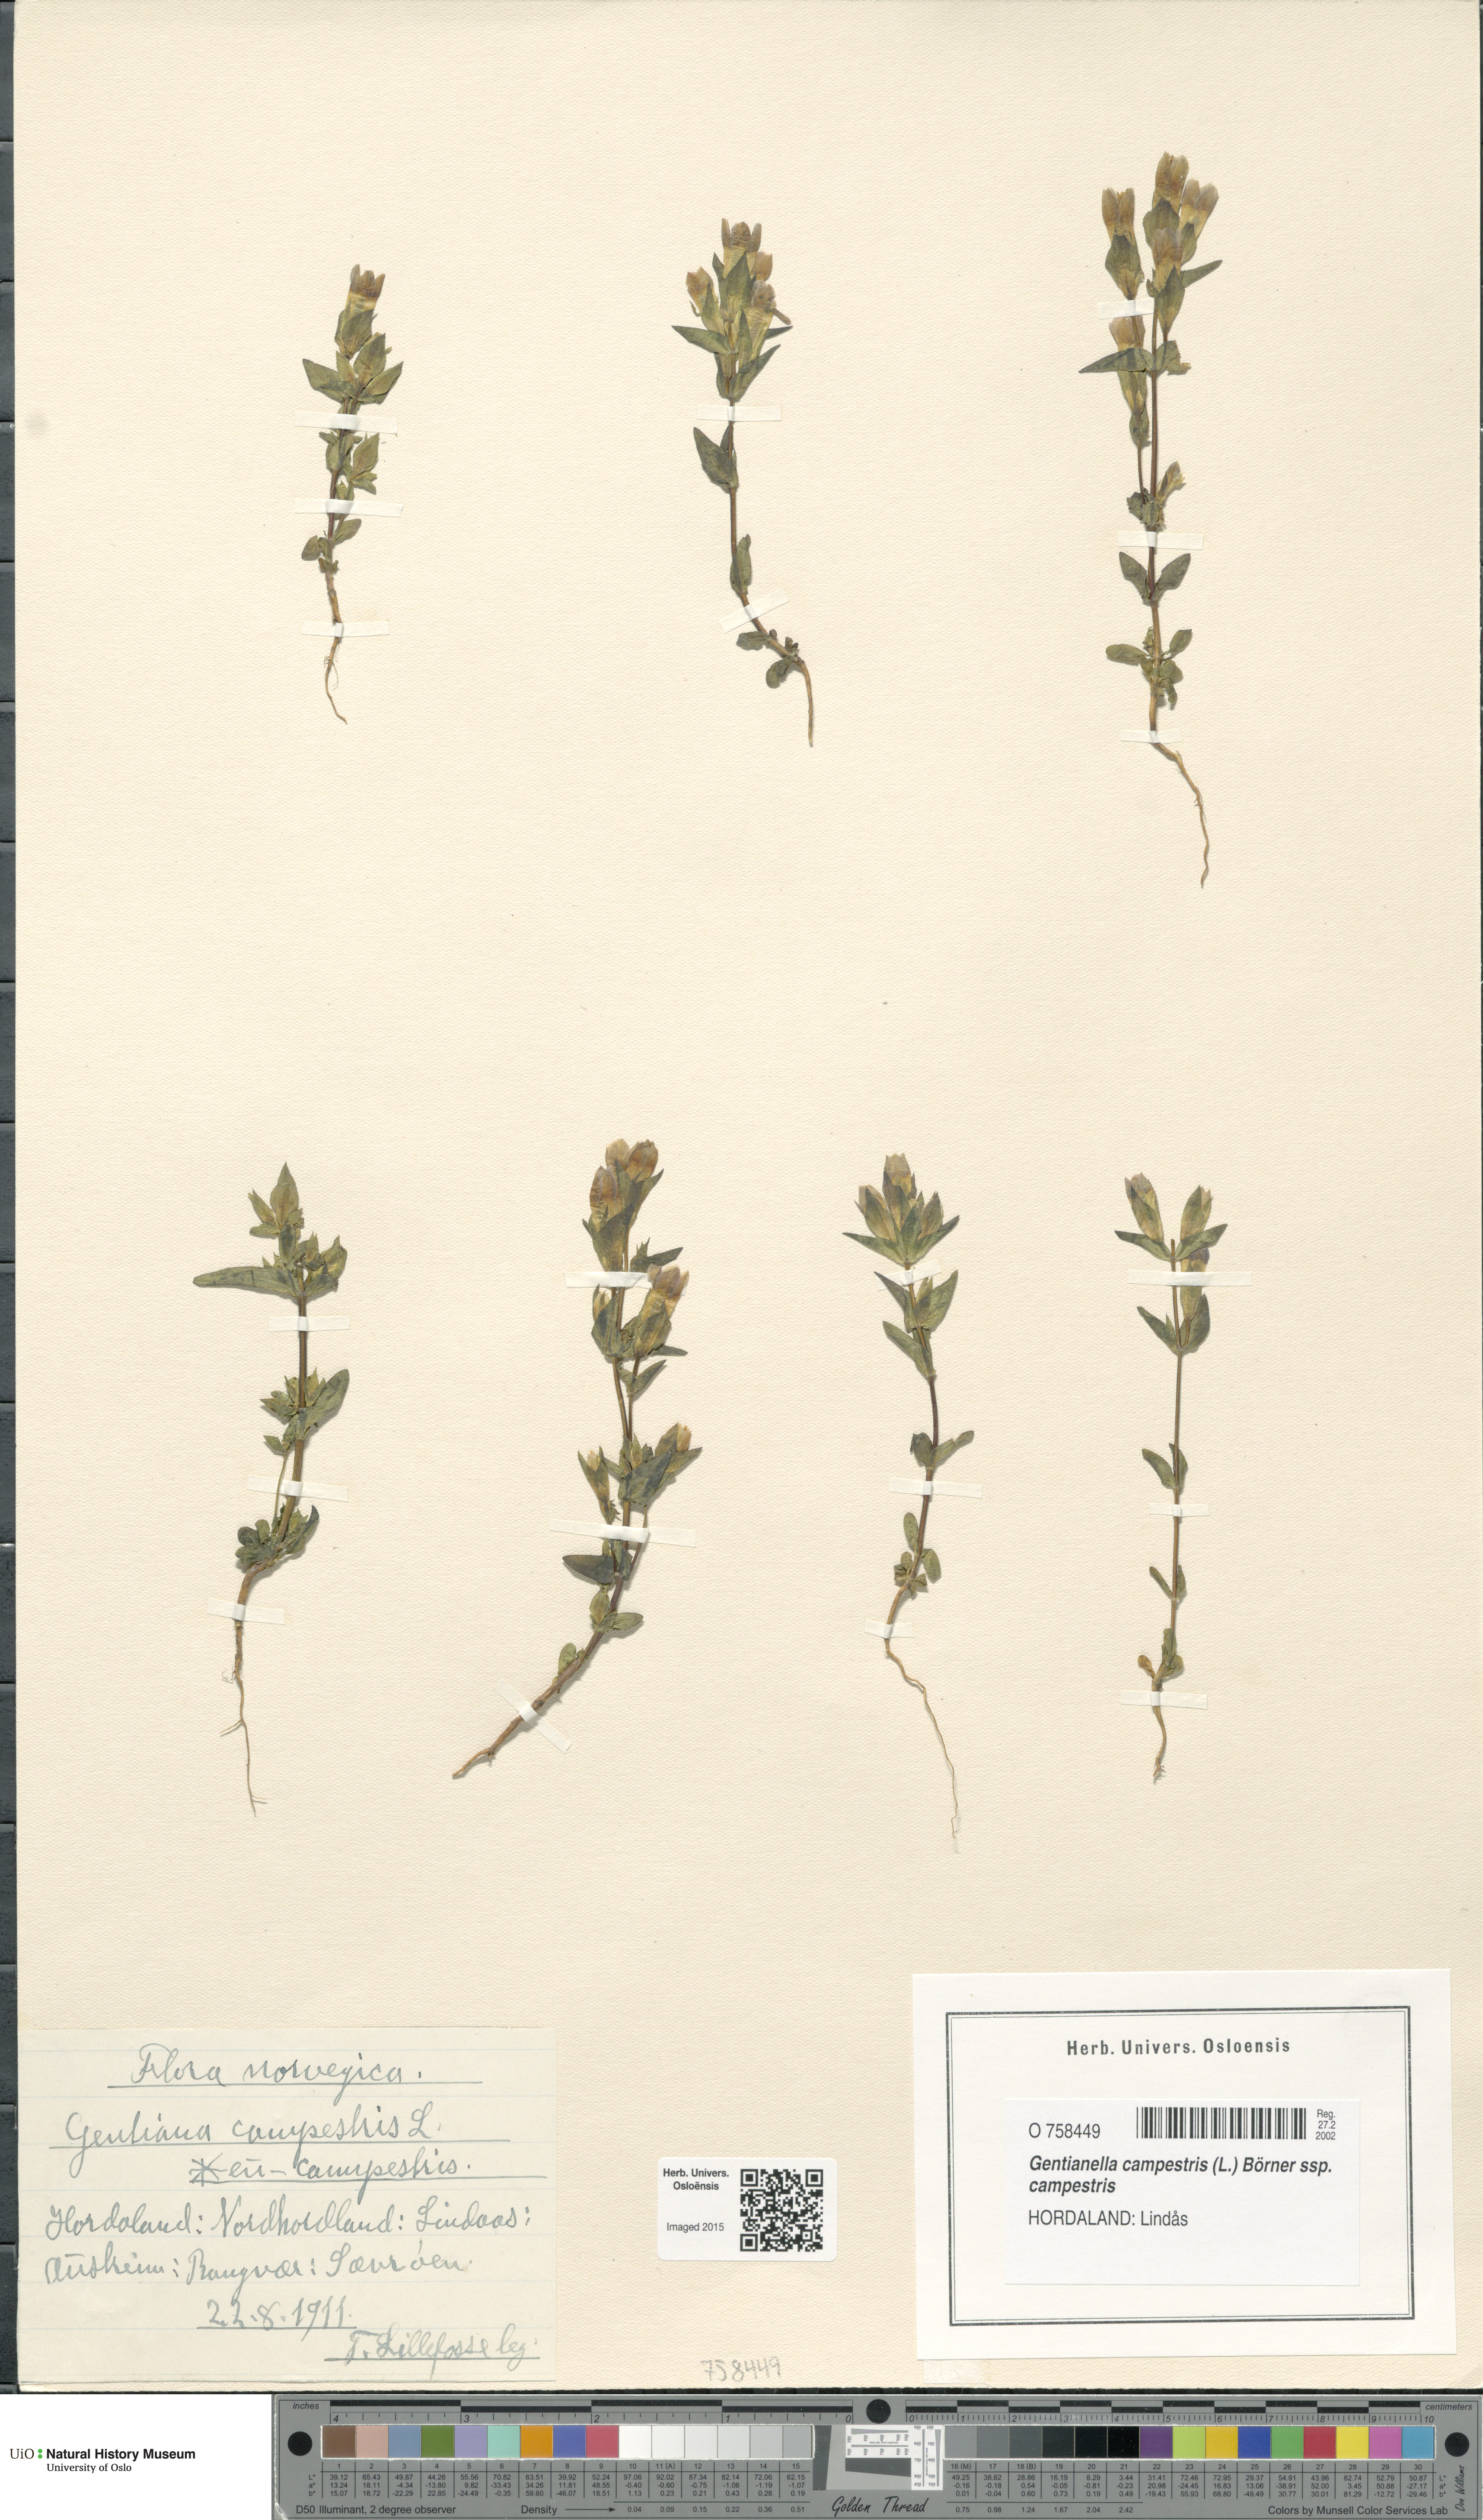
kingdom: Plantae
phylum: Tracheophyta
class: Magnoliopsida
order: Gentianales
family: Gentianaceae
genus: Gentianella
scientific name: Gentianella campestris
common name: Field gentian
